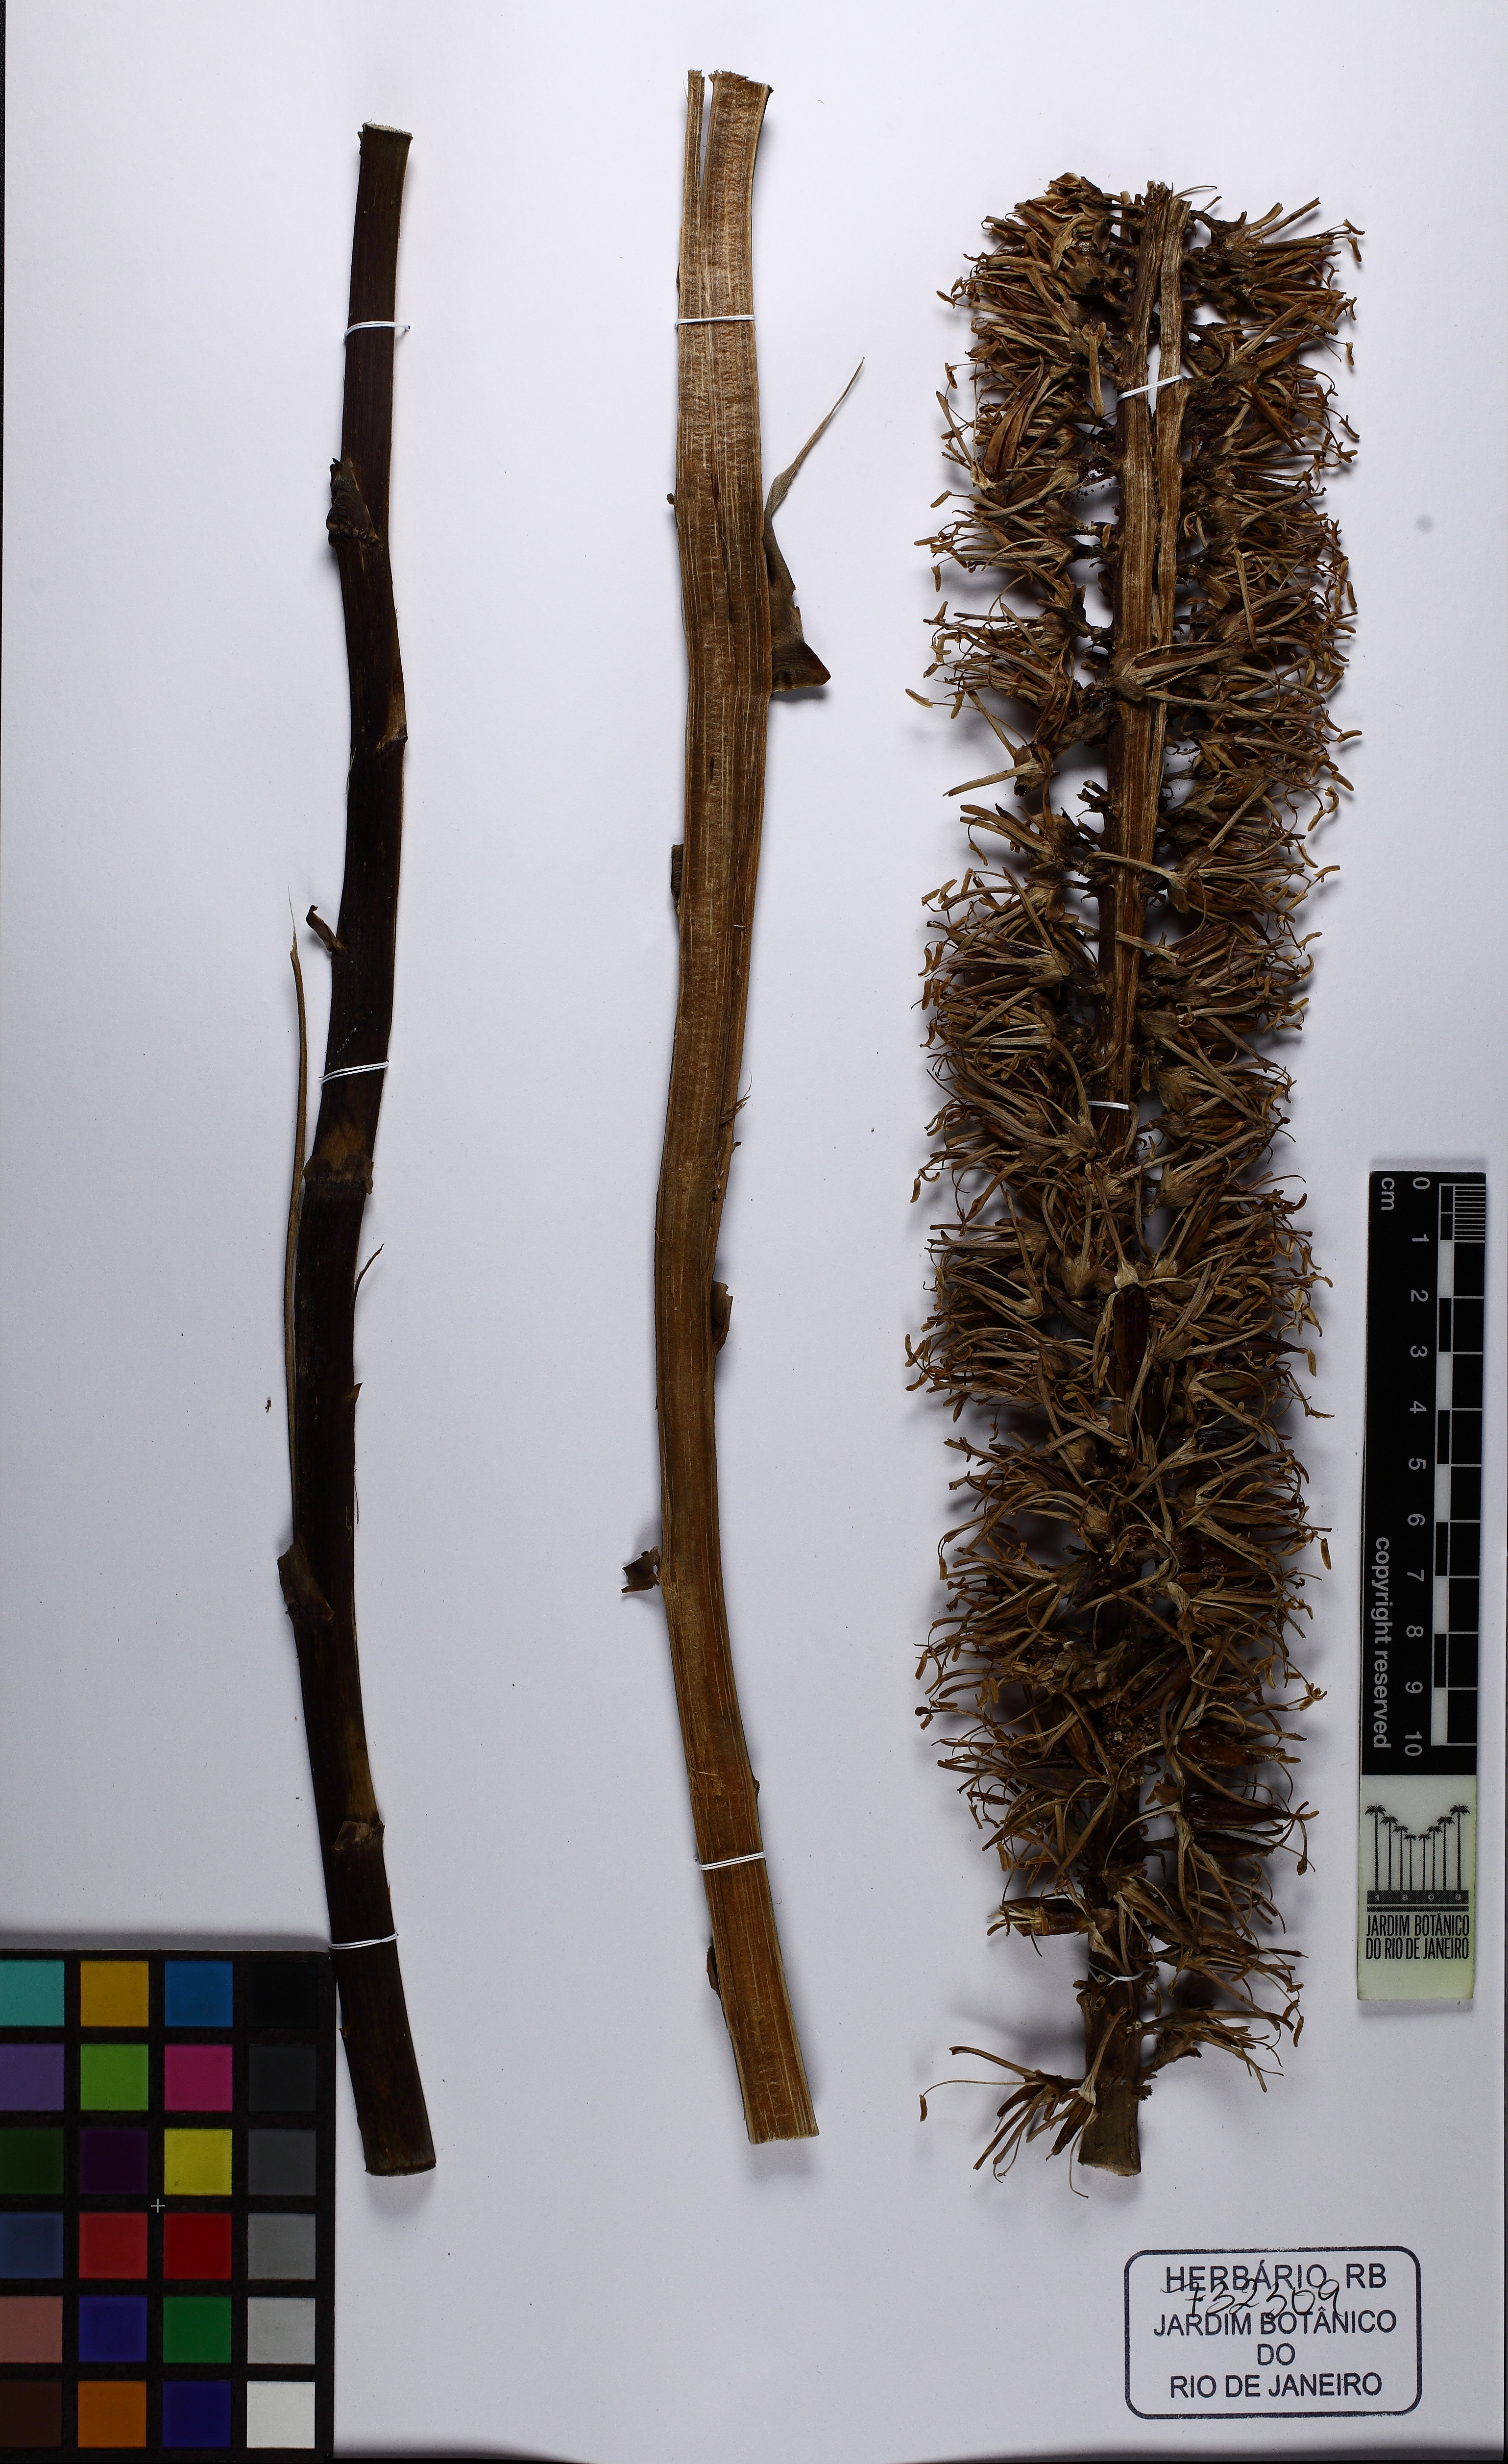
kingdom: Plantae
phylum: Tracheophyta
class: Liliopsida
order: Poales
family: Bromeliaceae
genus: Encholirium
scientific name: Encholirium spectabile
